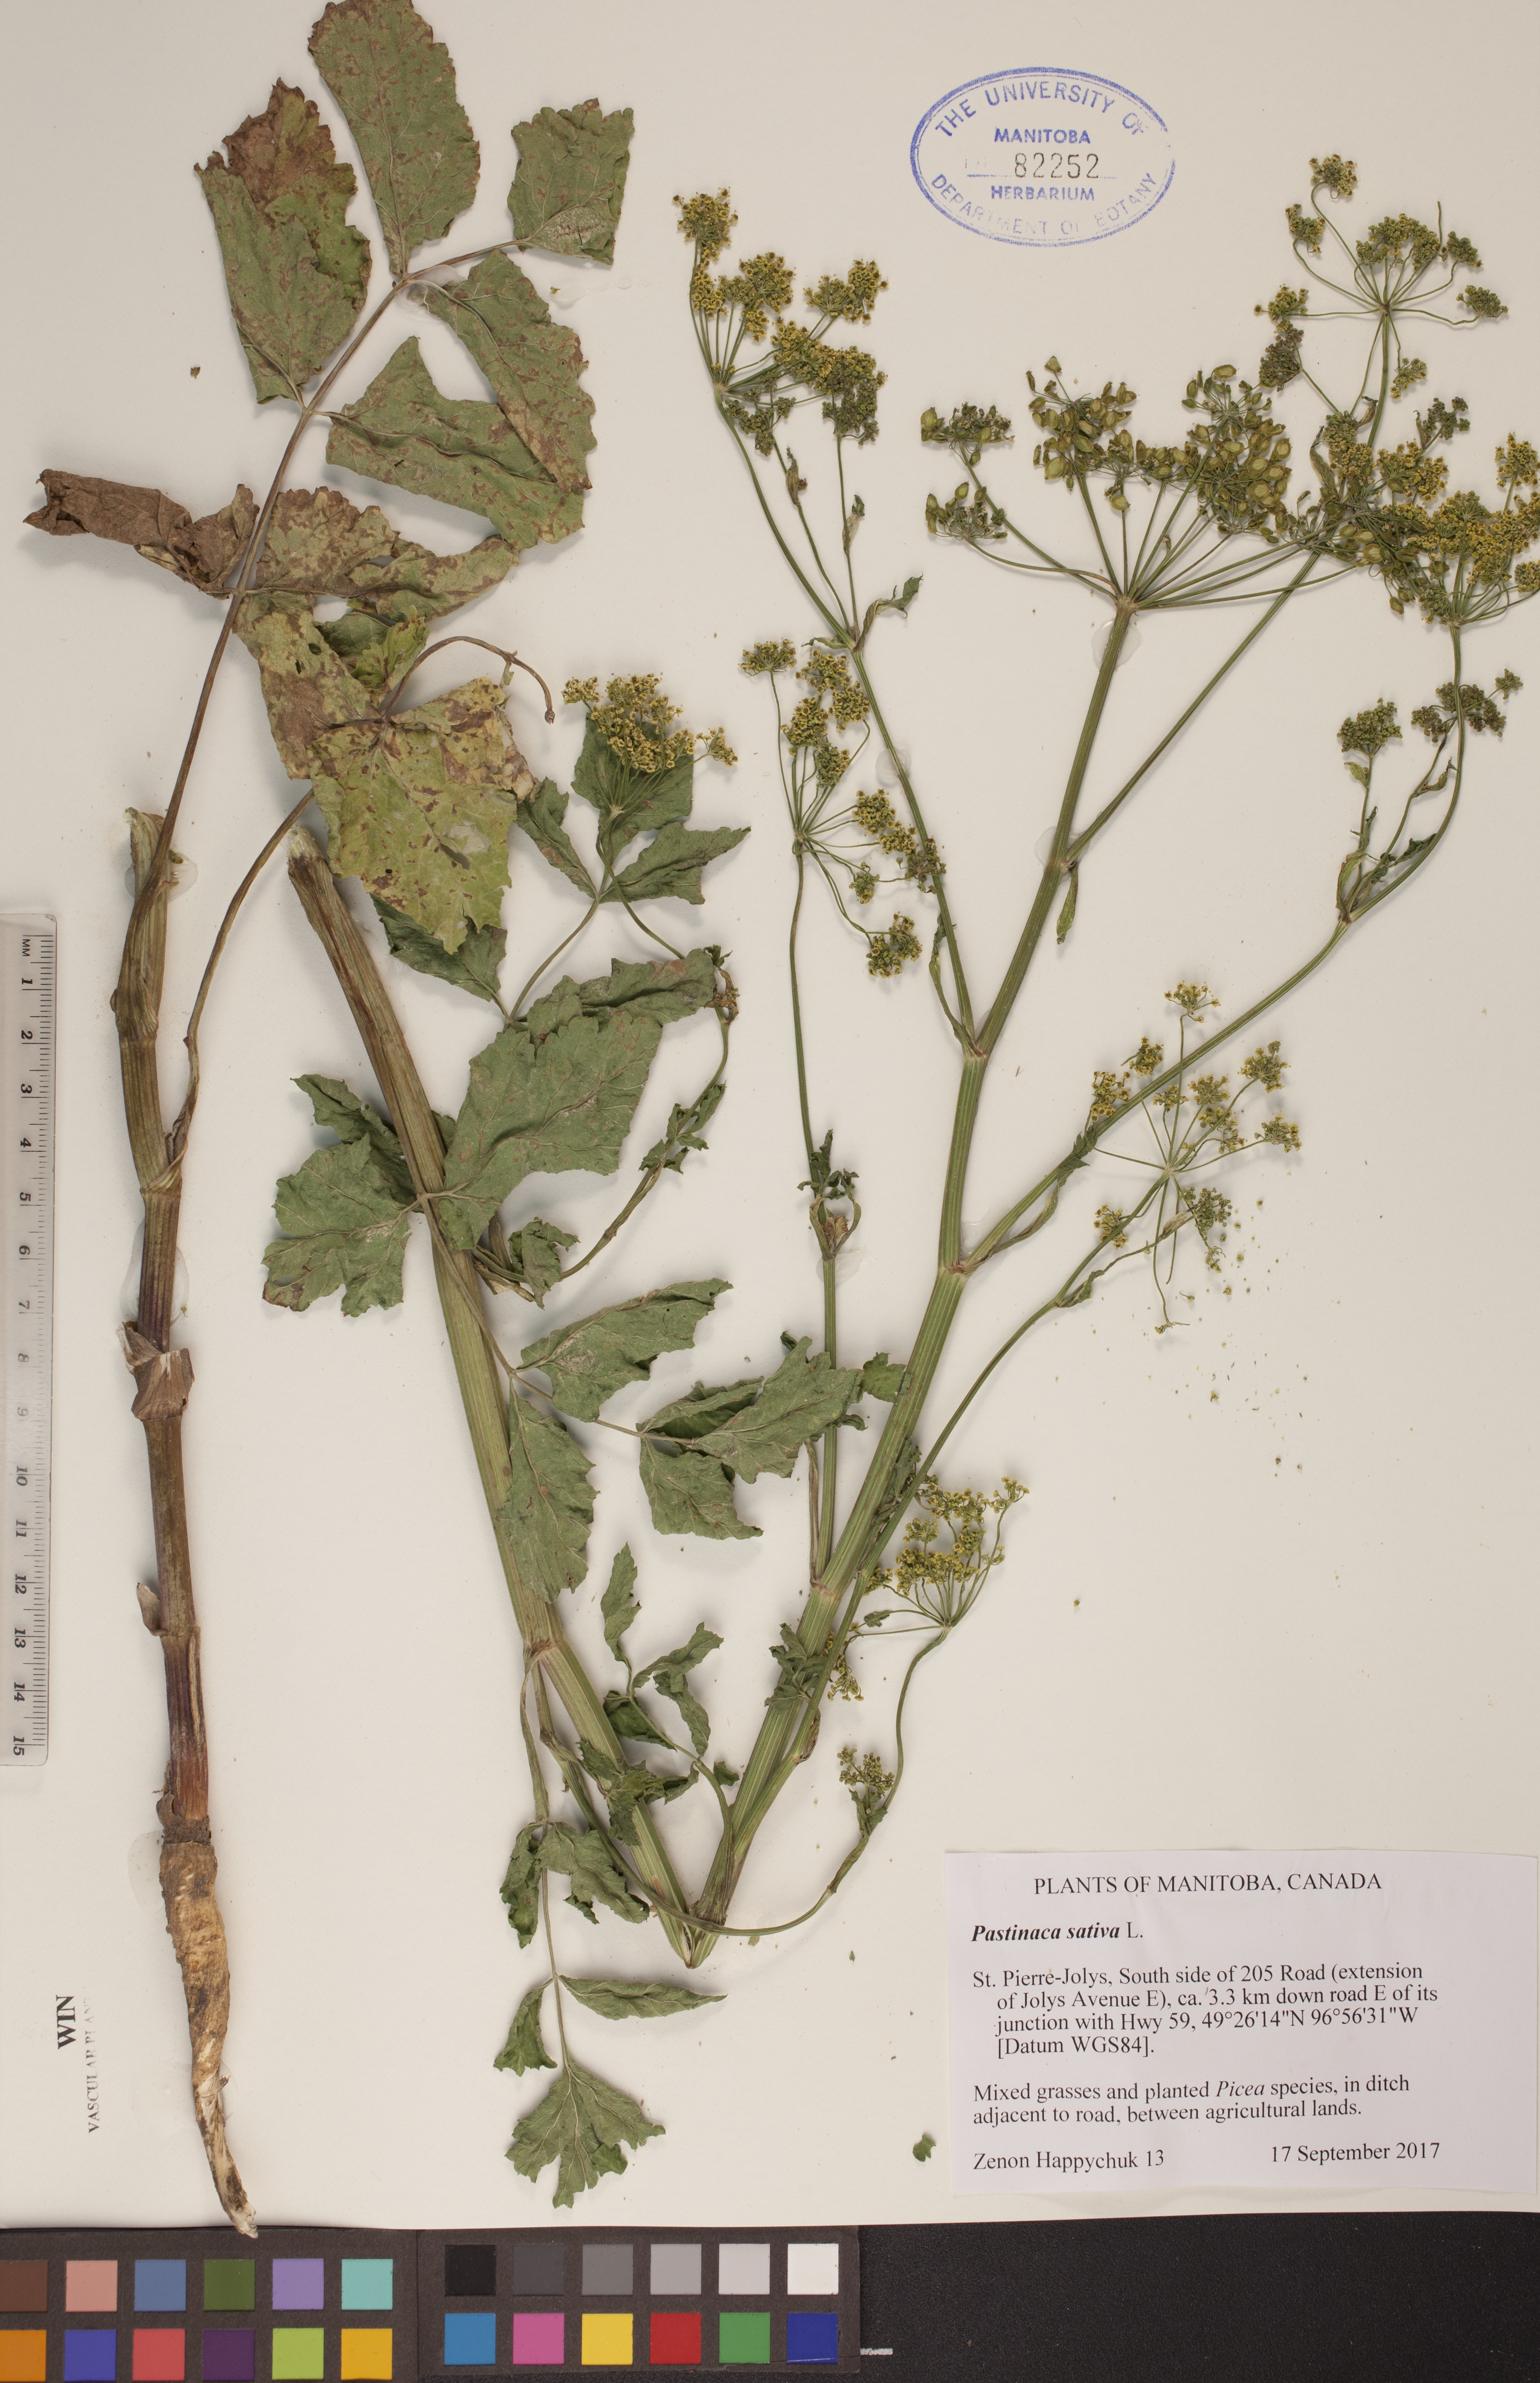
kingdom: Plantae
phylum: Tracheophyta
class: Magnoliopsida
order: Apiales
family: Apiaceae
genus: Pastinaca
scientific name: Pastinaca sativa
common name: Wild parsnip
